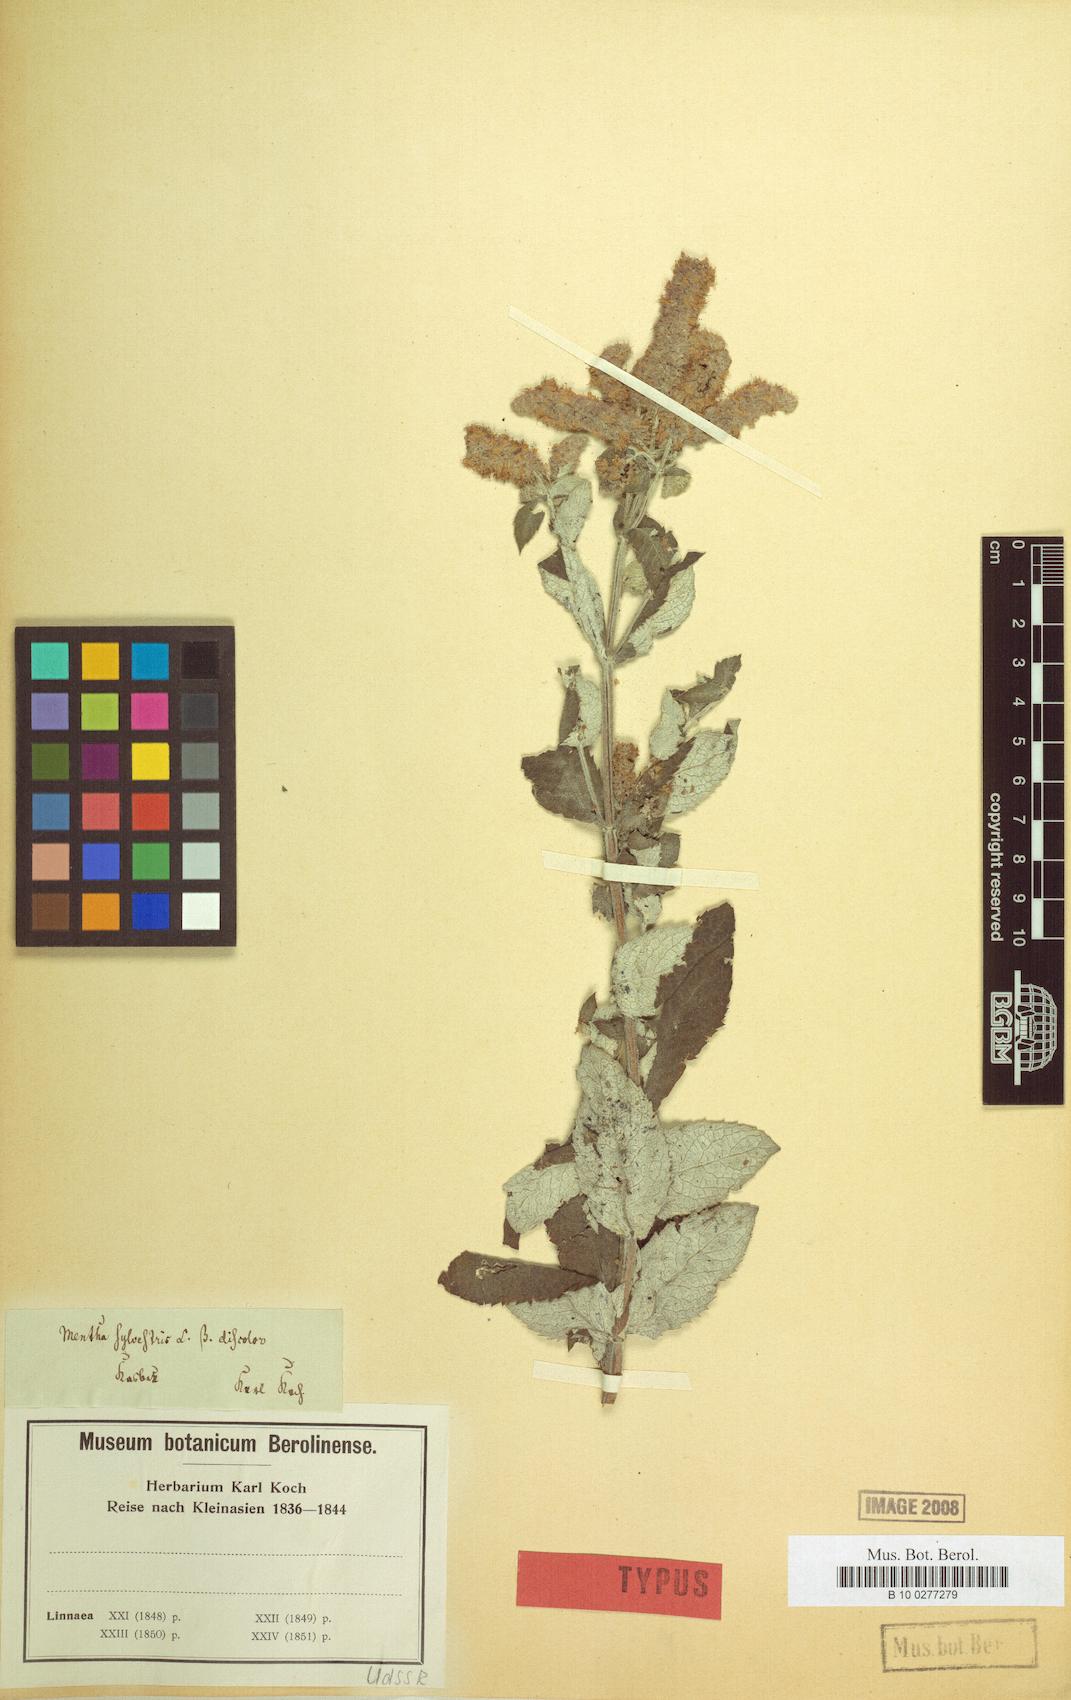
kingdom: Plantae
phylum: Tracheophyta
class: Magnoliopsida
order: Lamiales
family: Lamiaceae
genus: Mentha
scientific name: Mentha longifolia
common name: Horse mint
